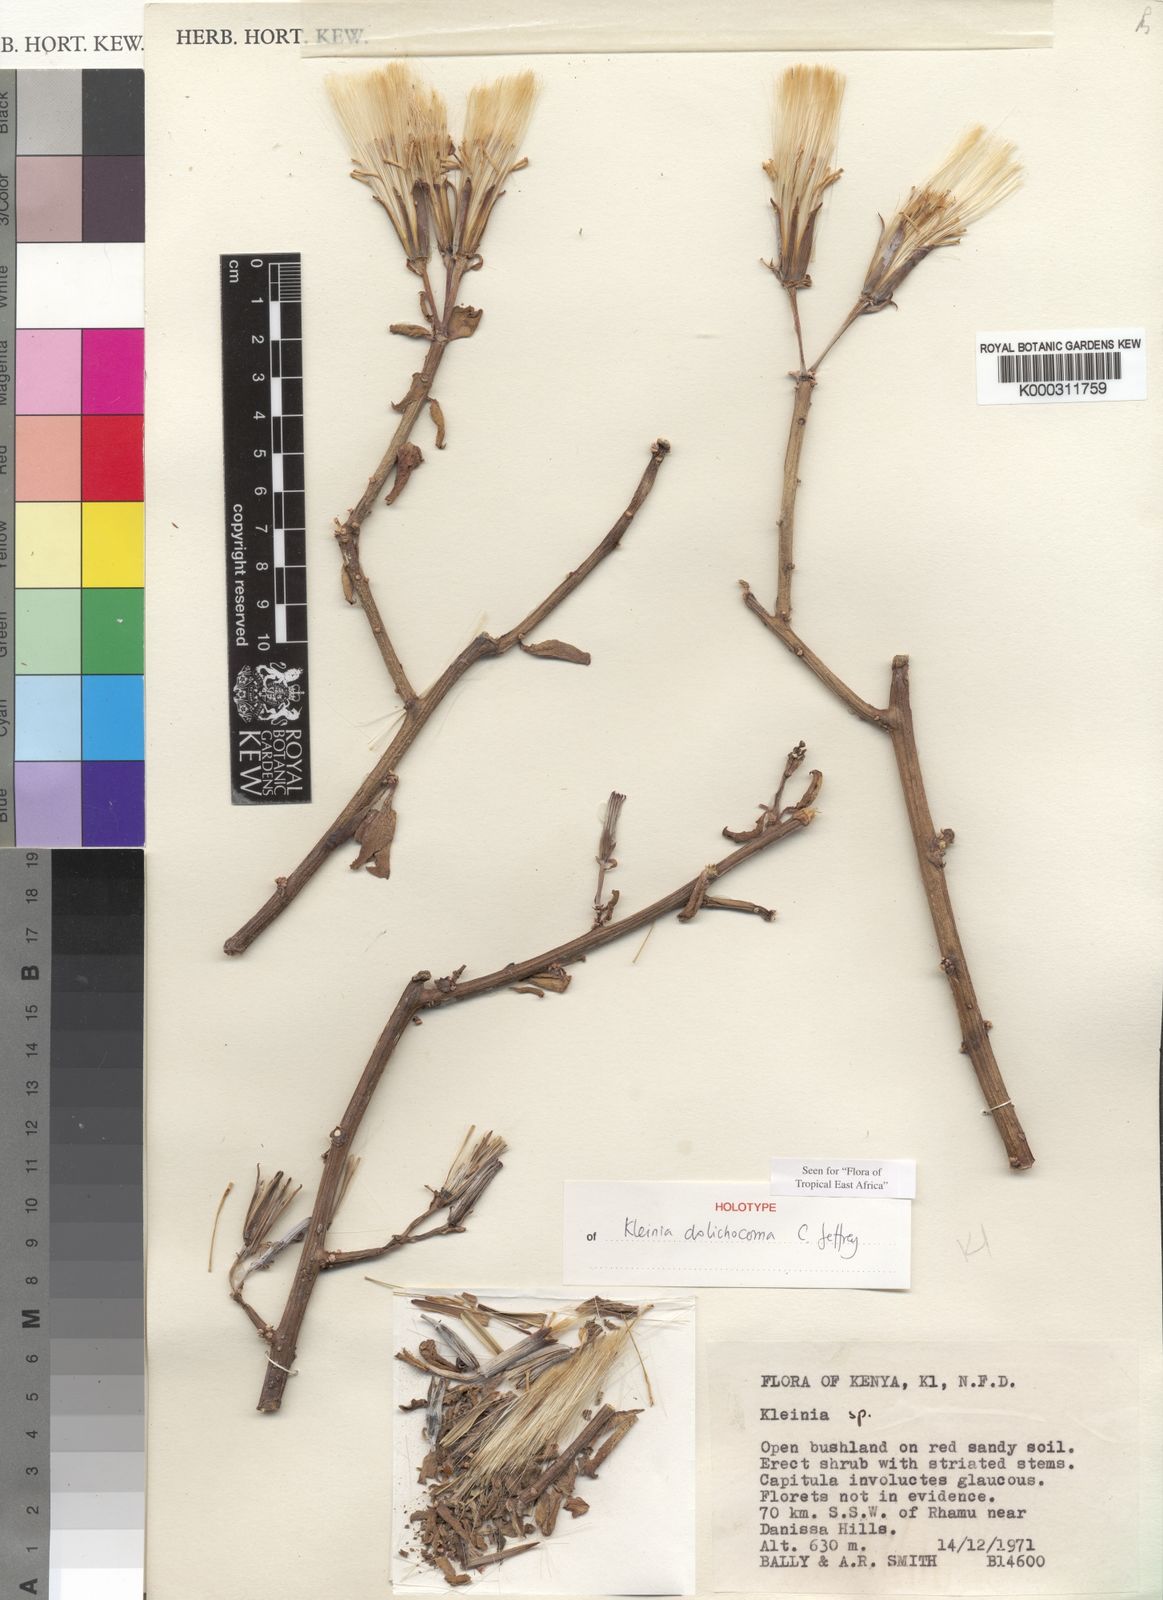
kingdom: Plantae
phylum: Tracheophyta
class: Magnoliopsida
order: Asterales
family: Asteraceae
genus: Kleinia
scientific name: Kleinia dolichocoma
